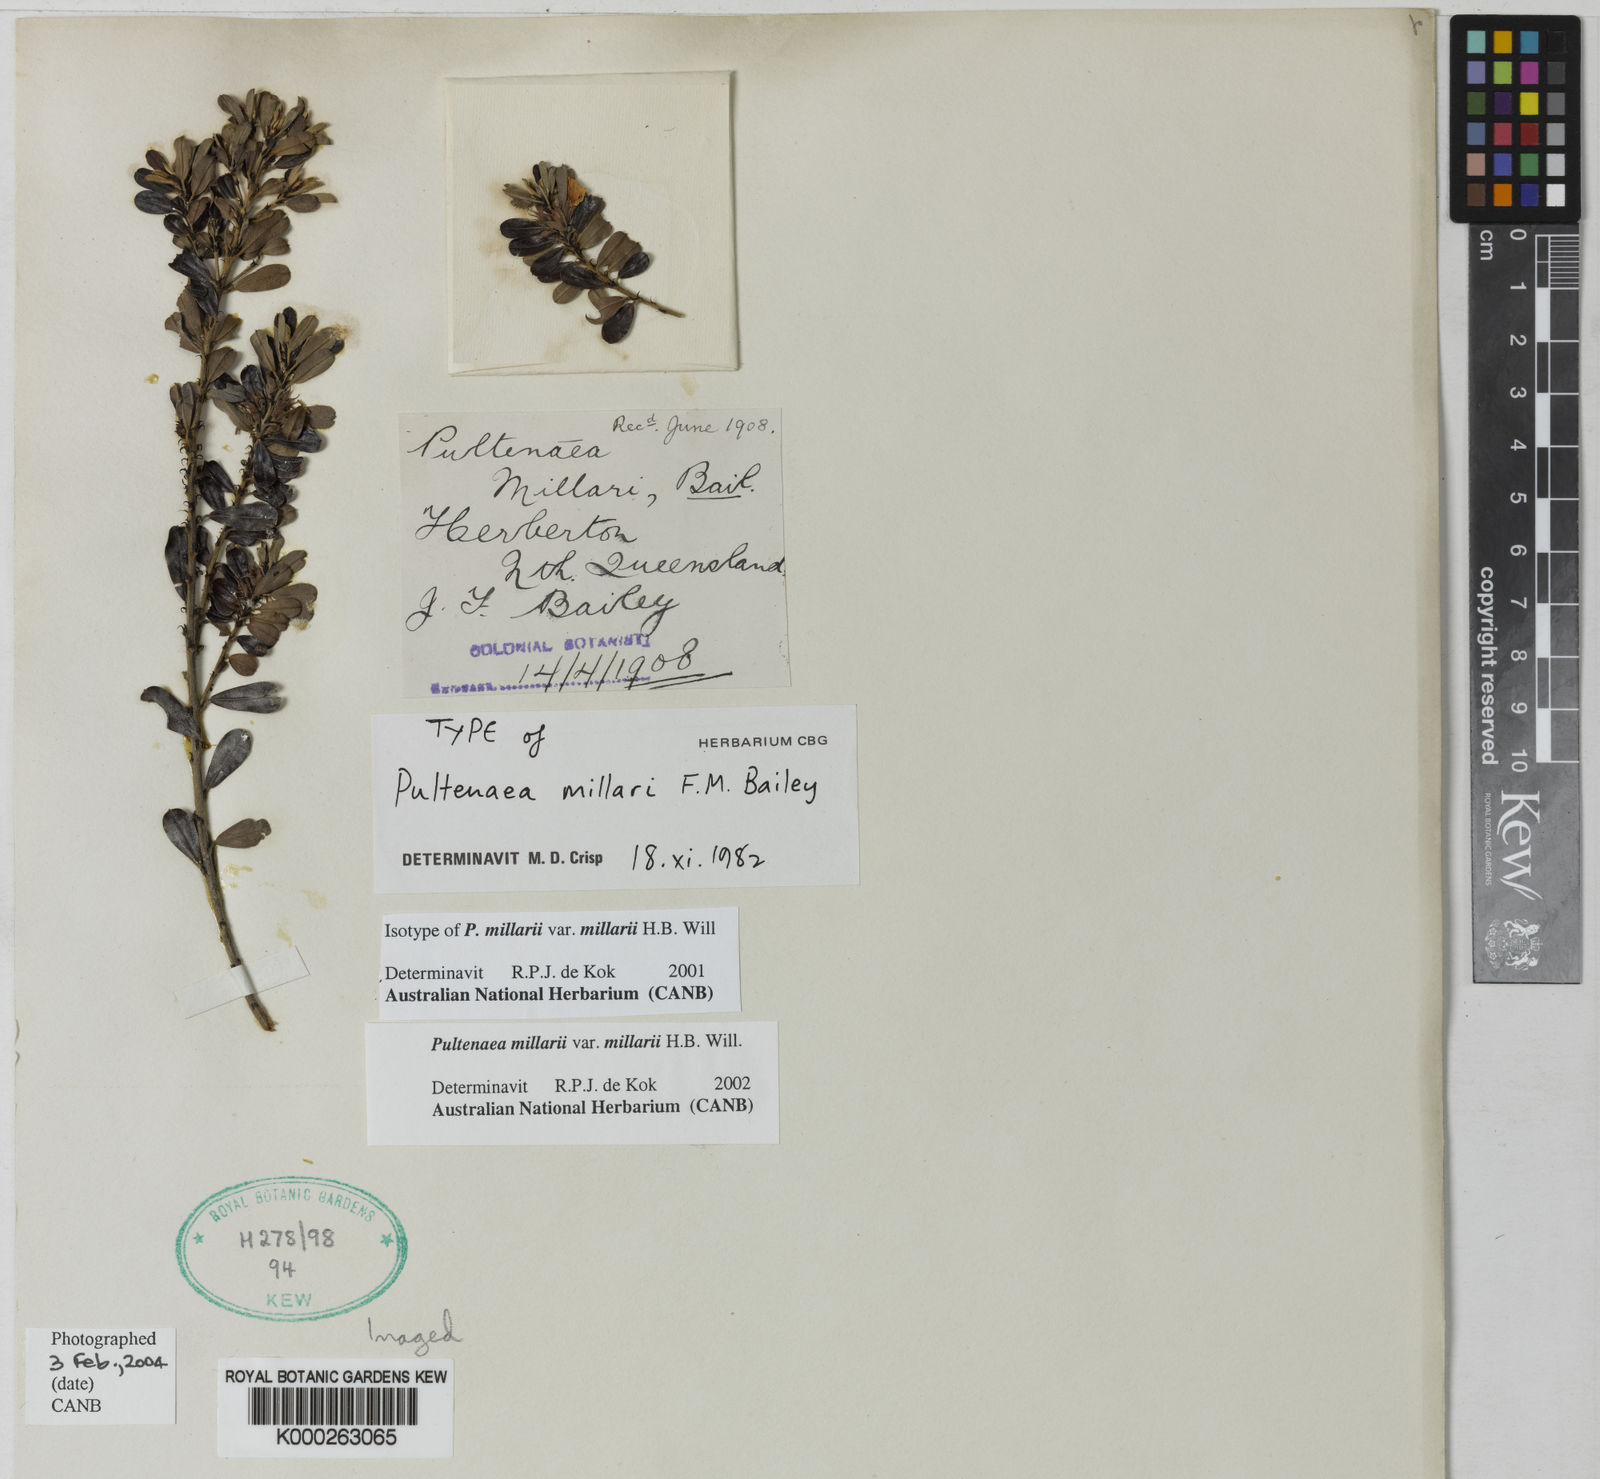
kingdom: Plantae
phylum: Tracheophyta
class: Magnoliopsida
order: Fabales
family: Fabaceae
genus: Pultenaea
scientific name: Pultenaea millarii
